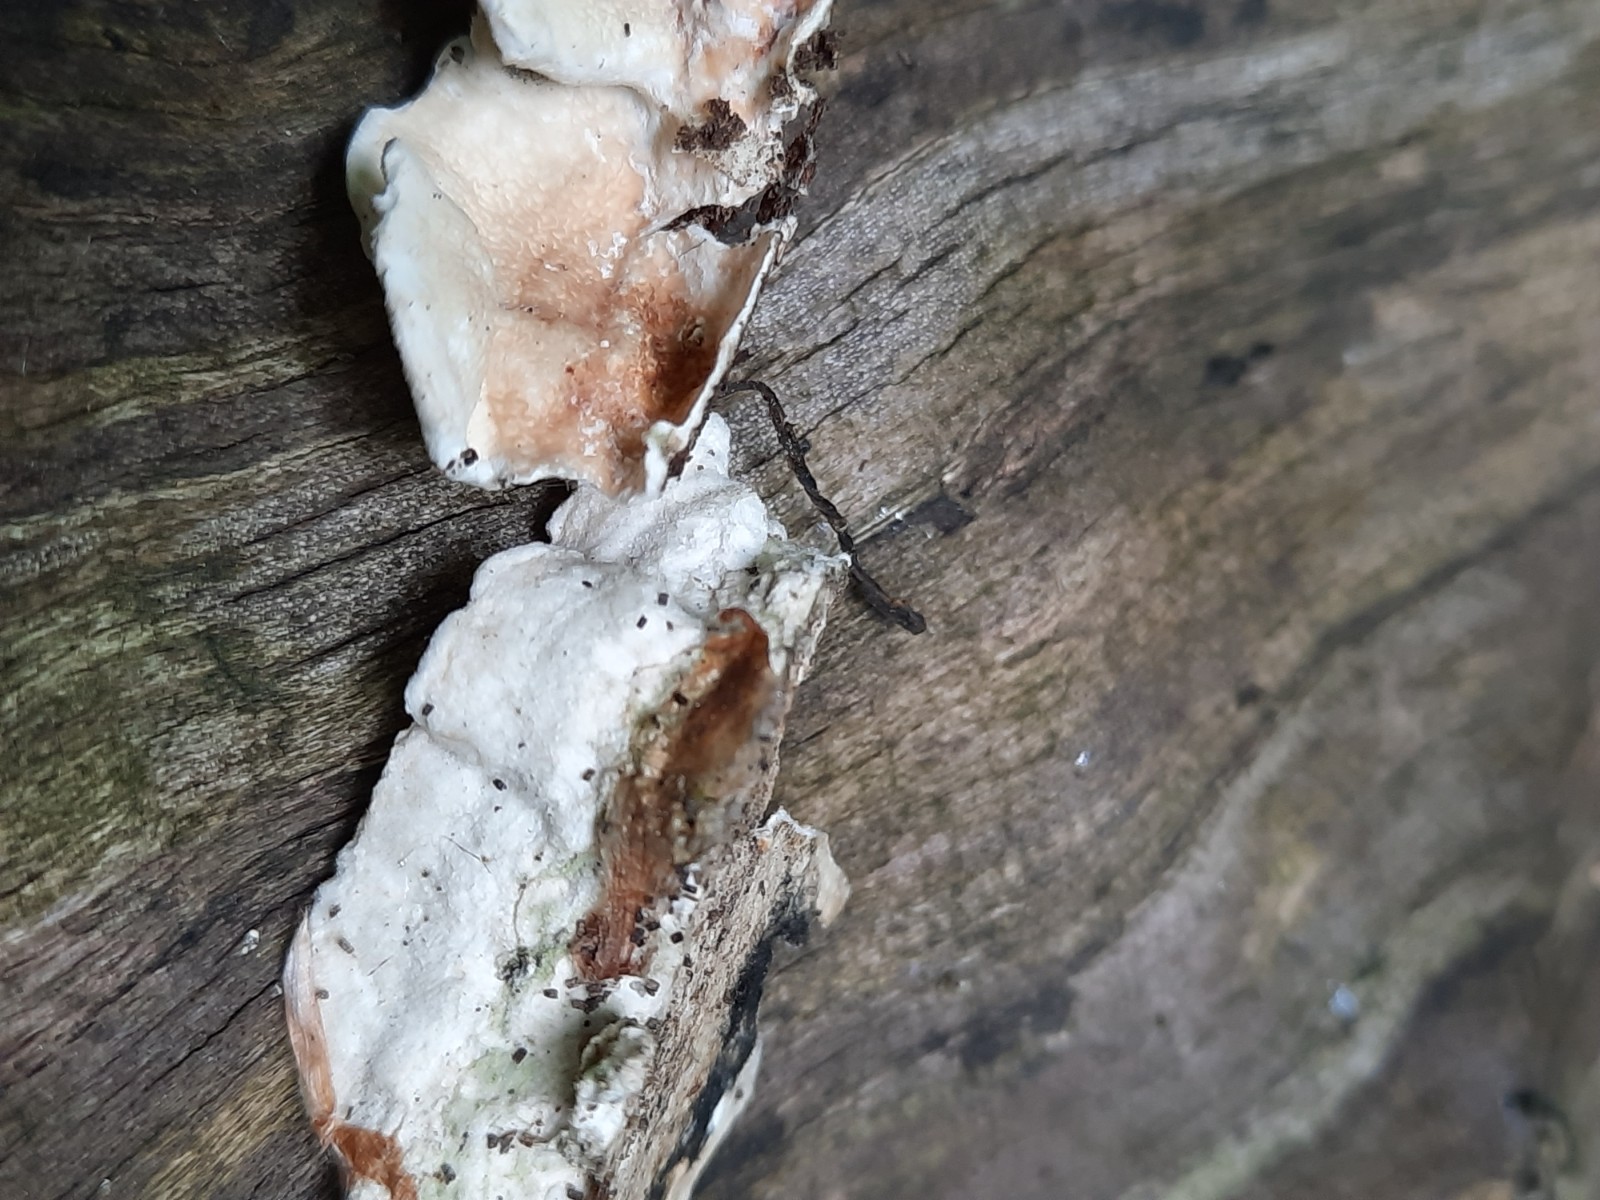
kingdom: Fungi
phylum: Basidiomycota
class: Agaricomycetes
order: Polyporales
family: Irpicaceae
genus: Byssomerulius
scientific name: Byssomerulius corium
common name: læder-åresvamp
